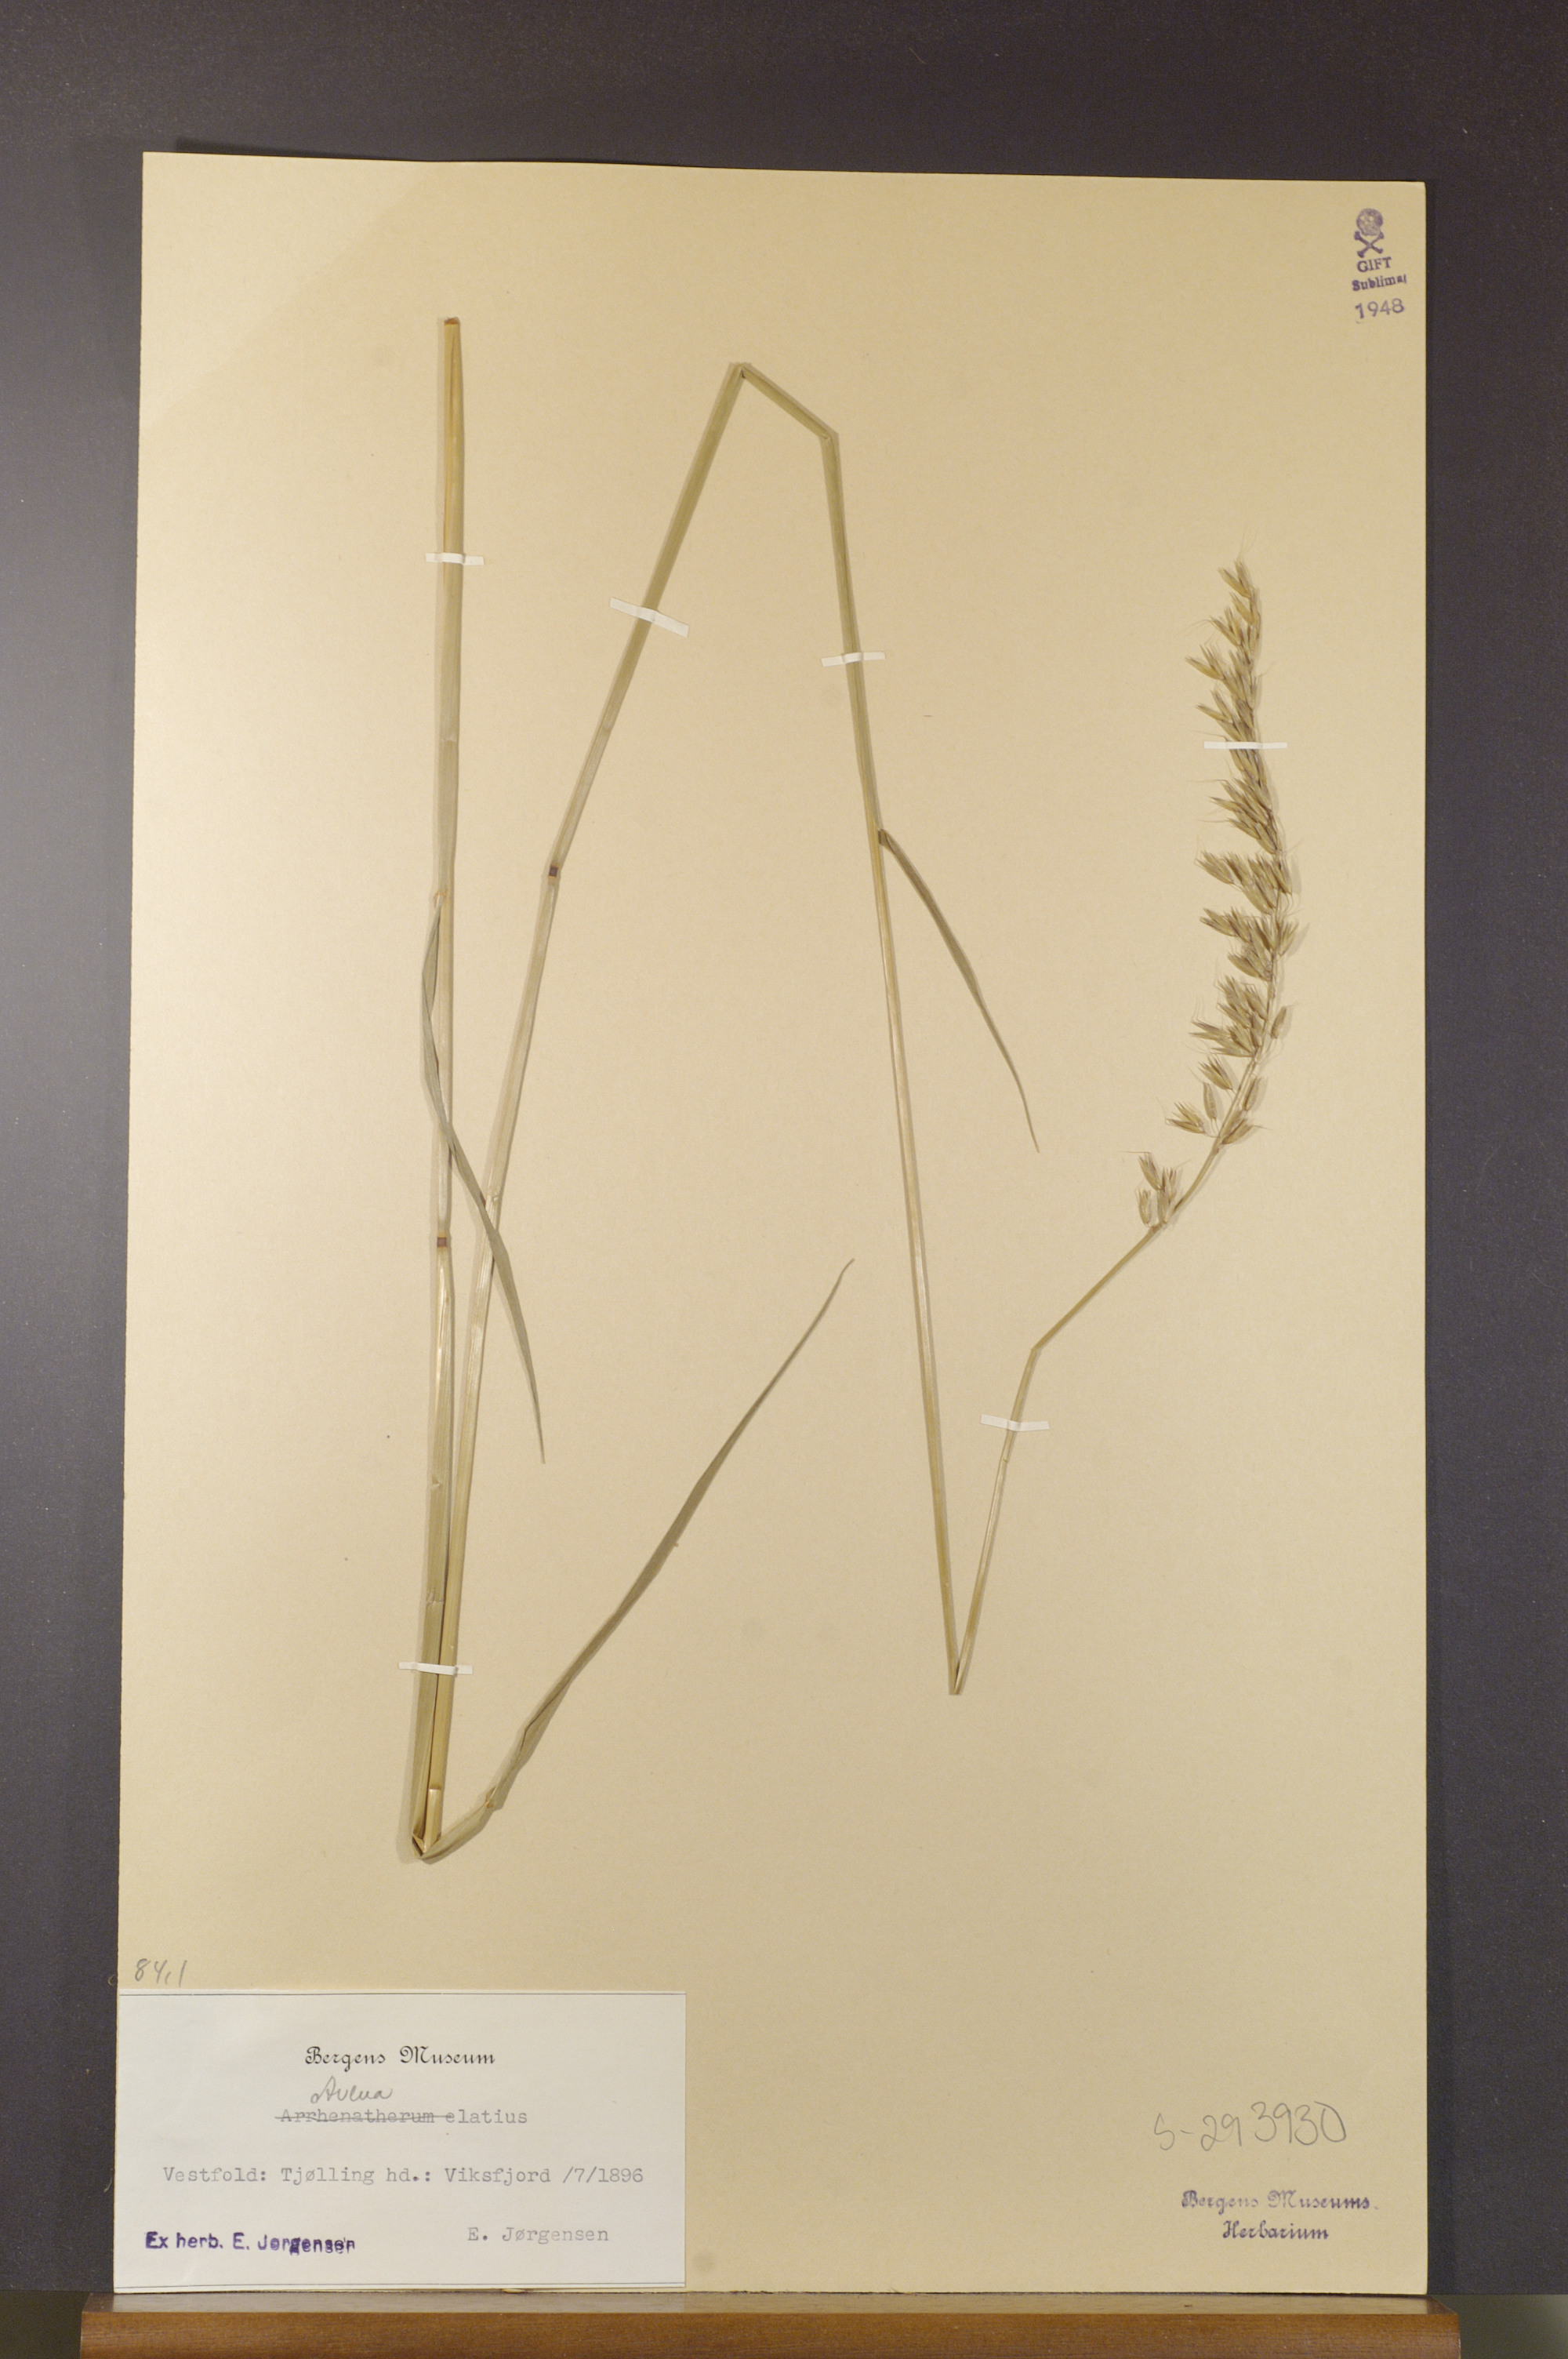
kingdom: Plantae
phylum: Tracheophyta
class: Liliopsida
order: Poales
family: Poaceae
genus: Arrhenatherum
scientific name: Arrhenatherum elatius
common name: Tall oatgrass
